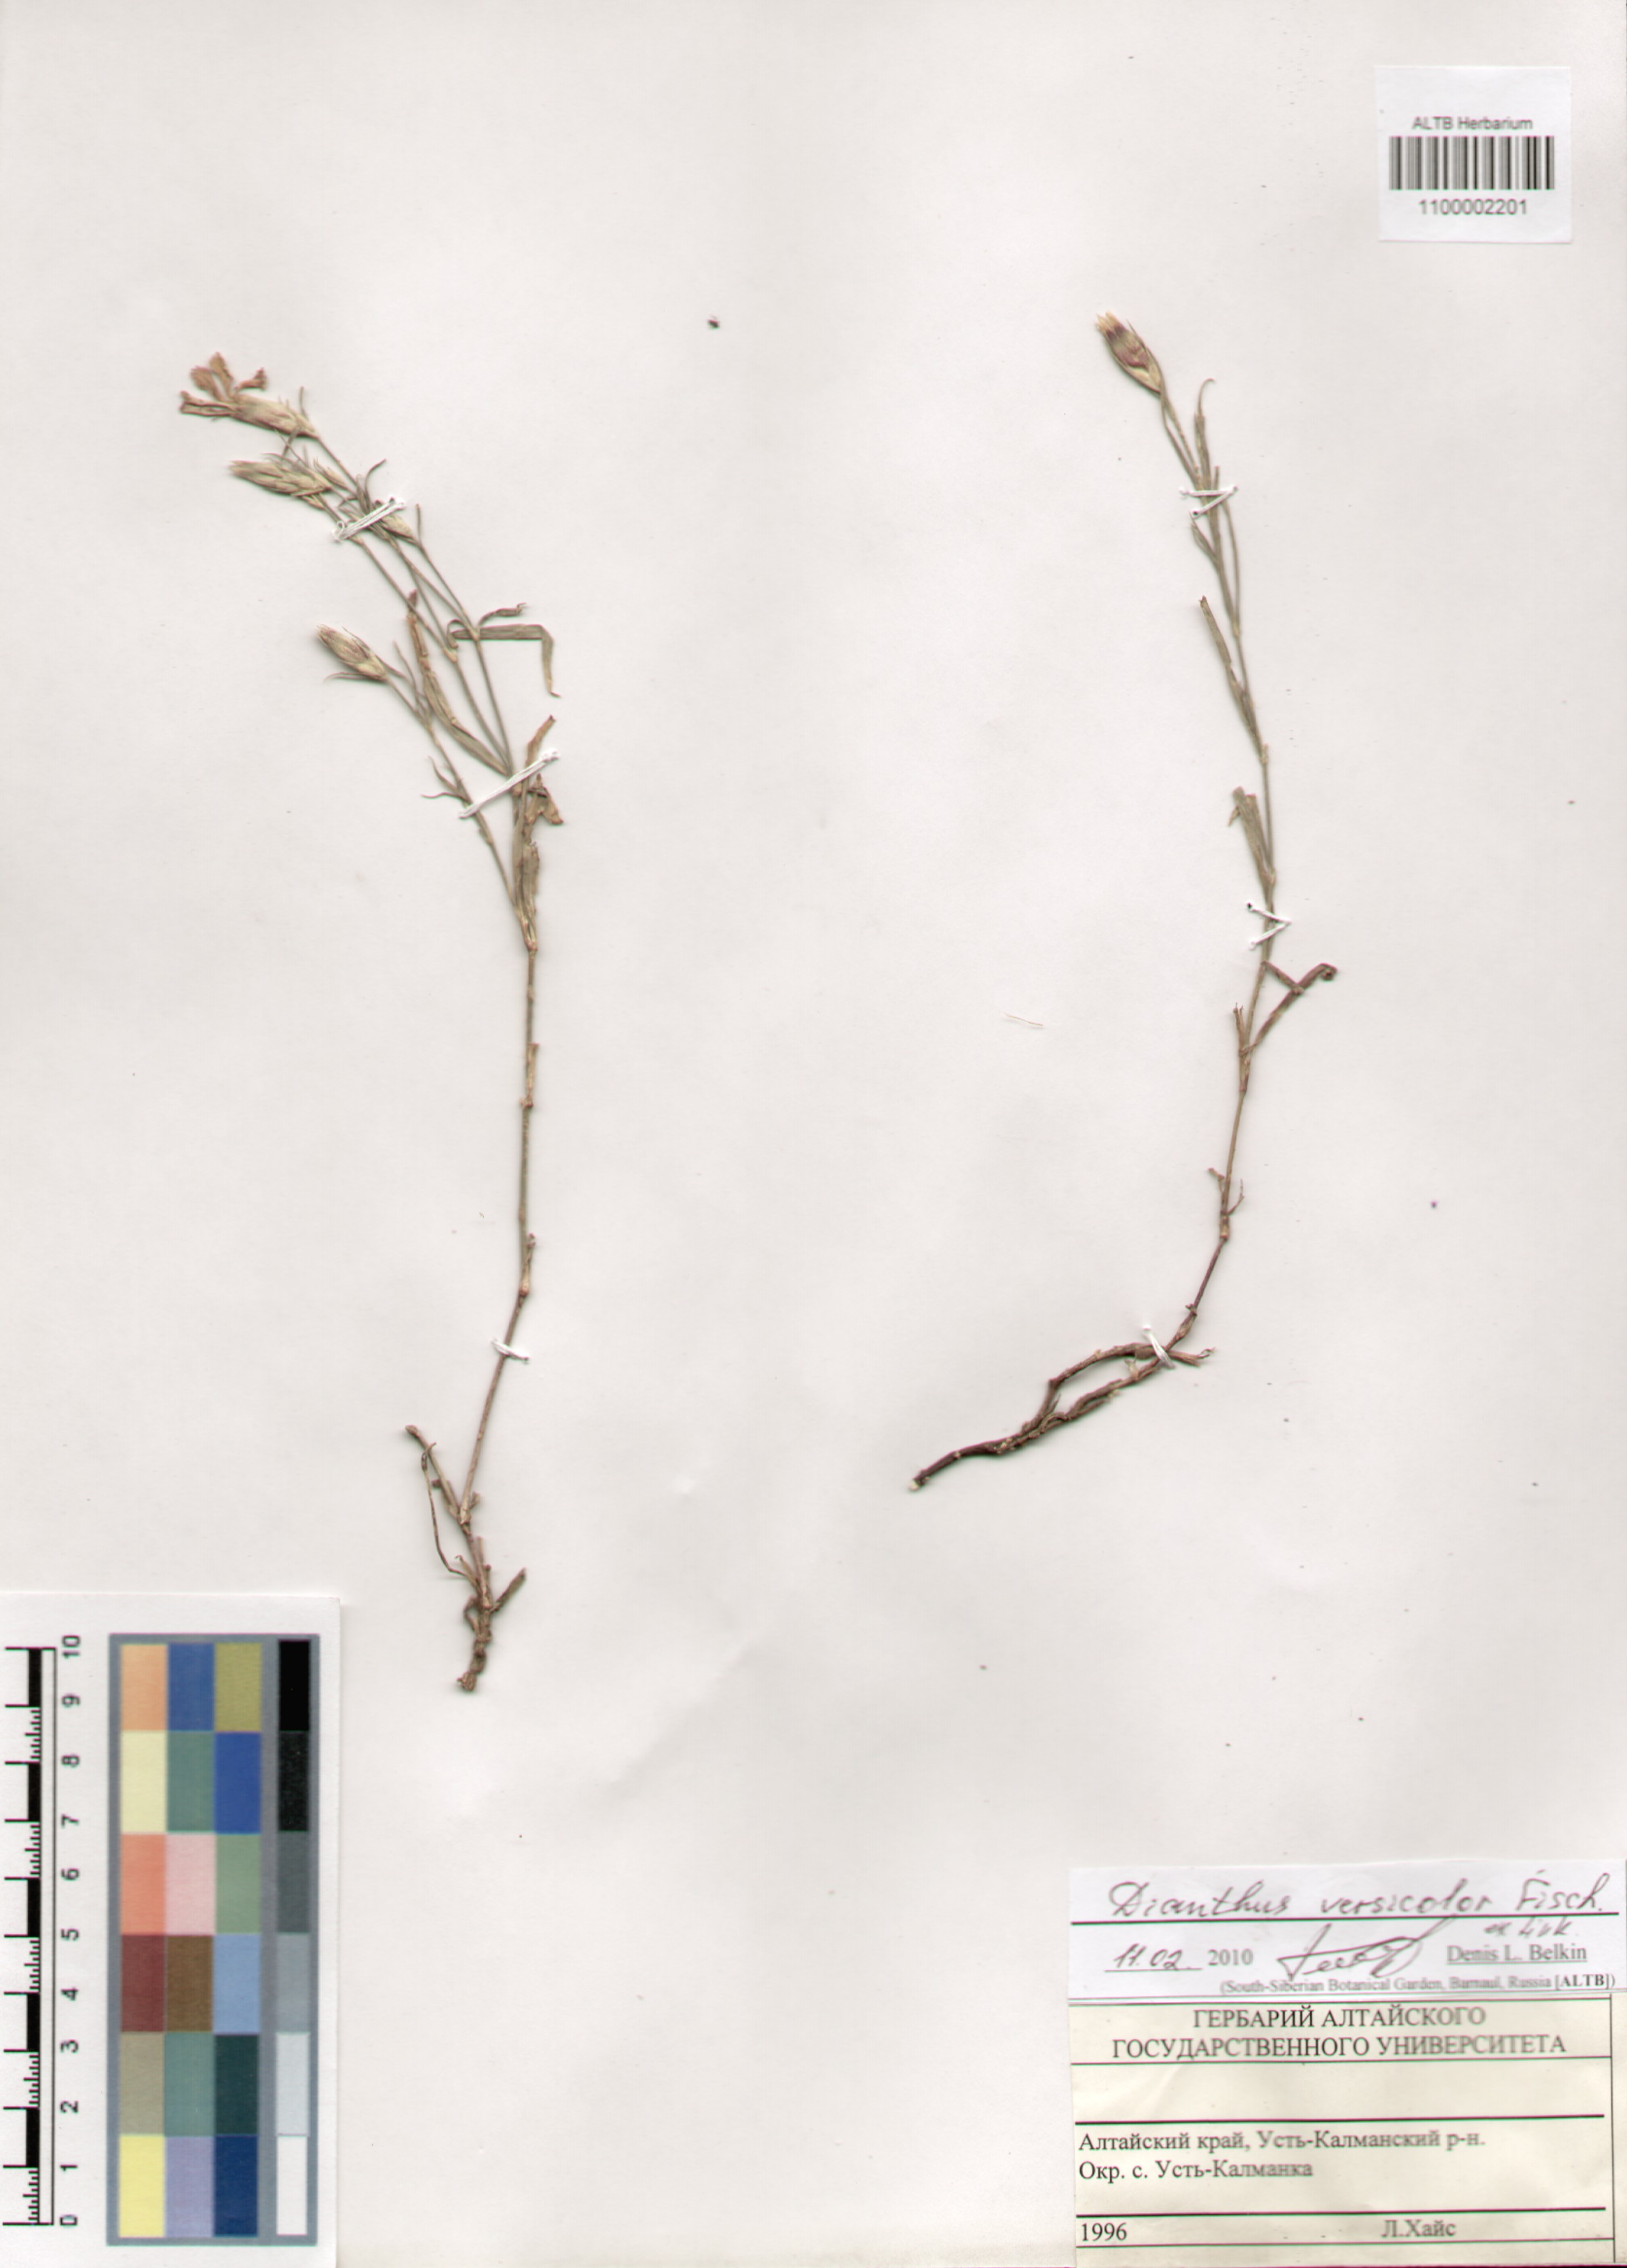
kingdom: Plantae
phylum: Tracheophyta
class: Magnoliopsida
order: Caryophyllales
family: Caryophyllaceae
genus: Dianthus
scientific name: Dianthus chinensis
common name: Rainbow pink
